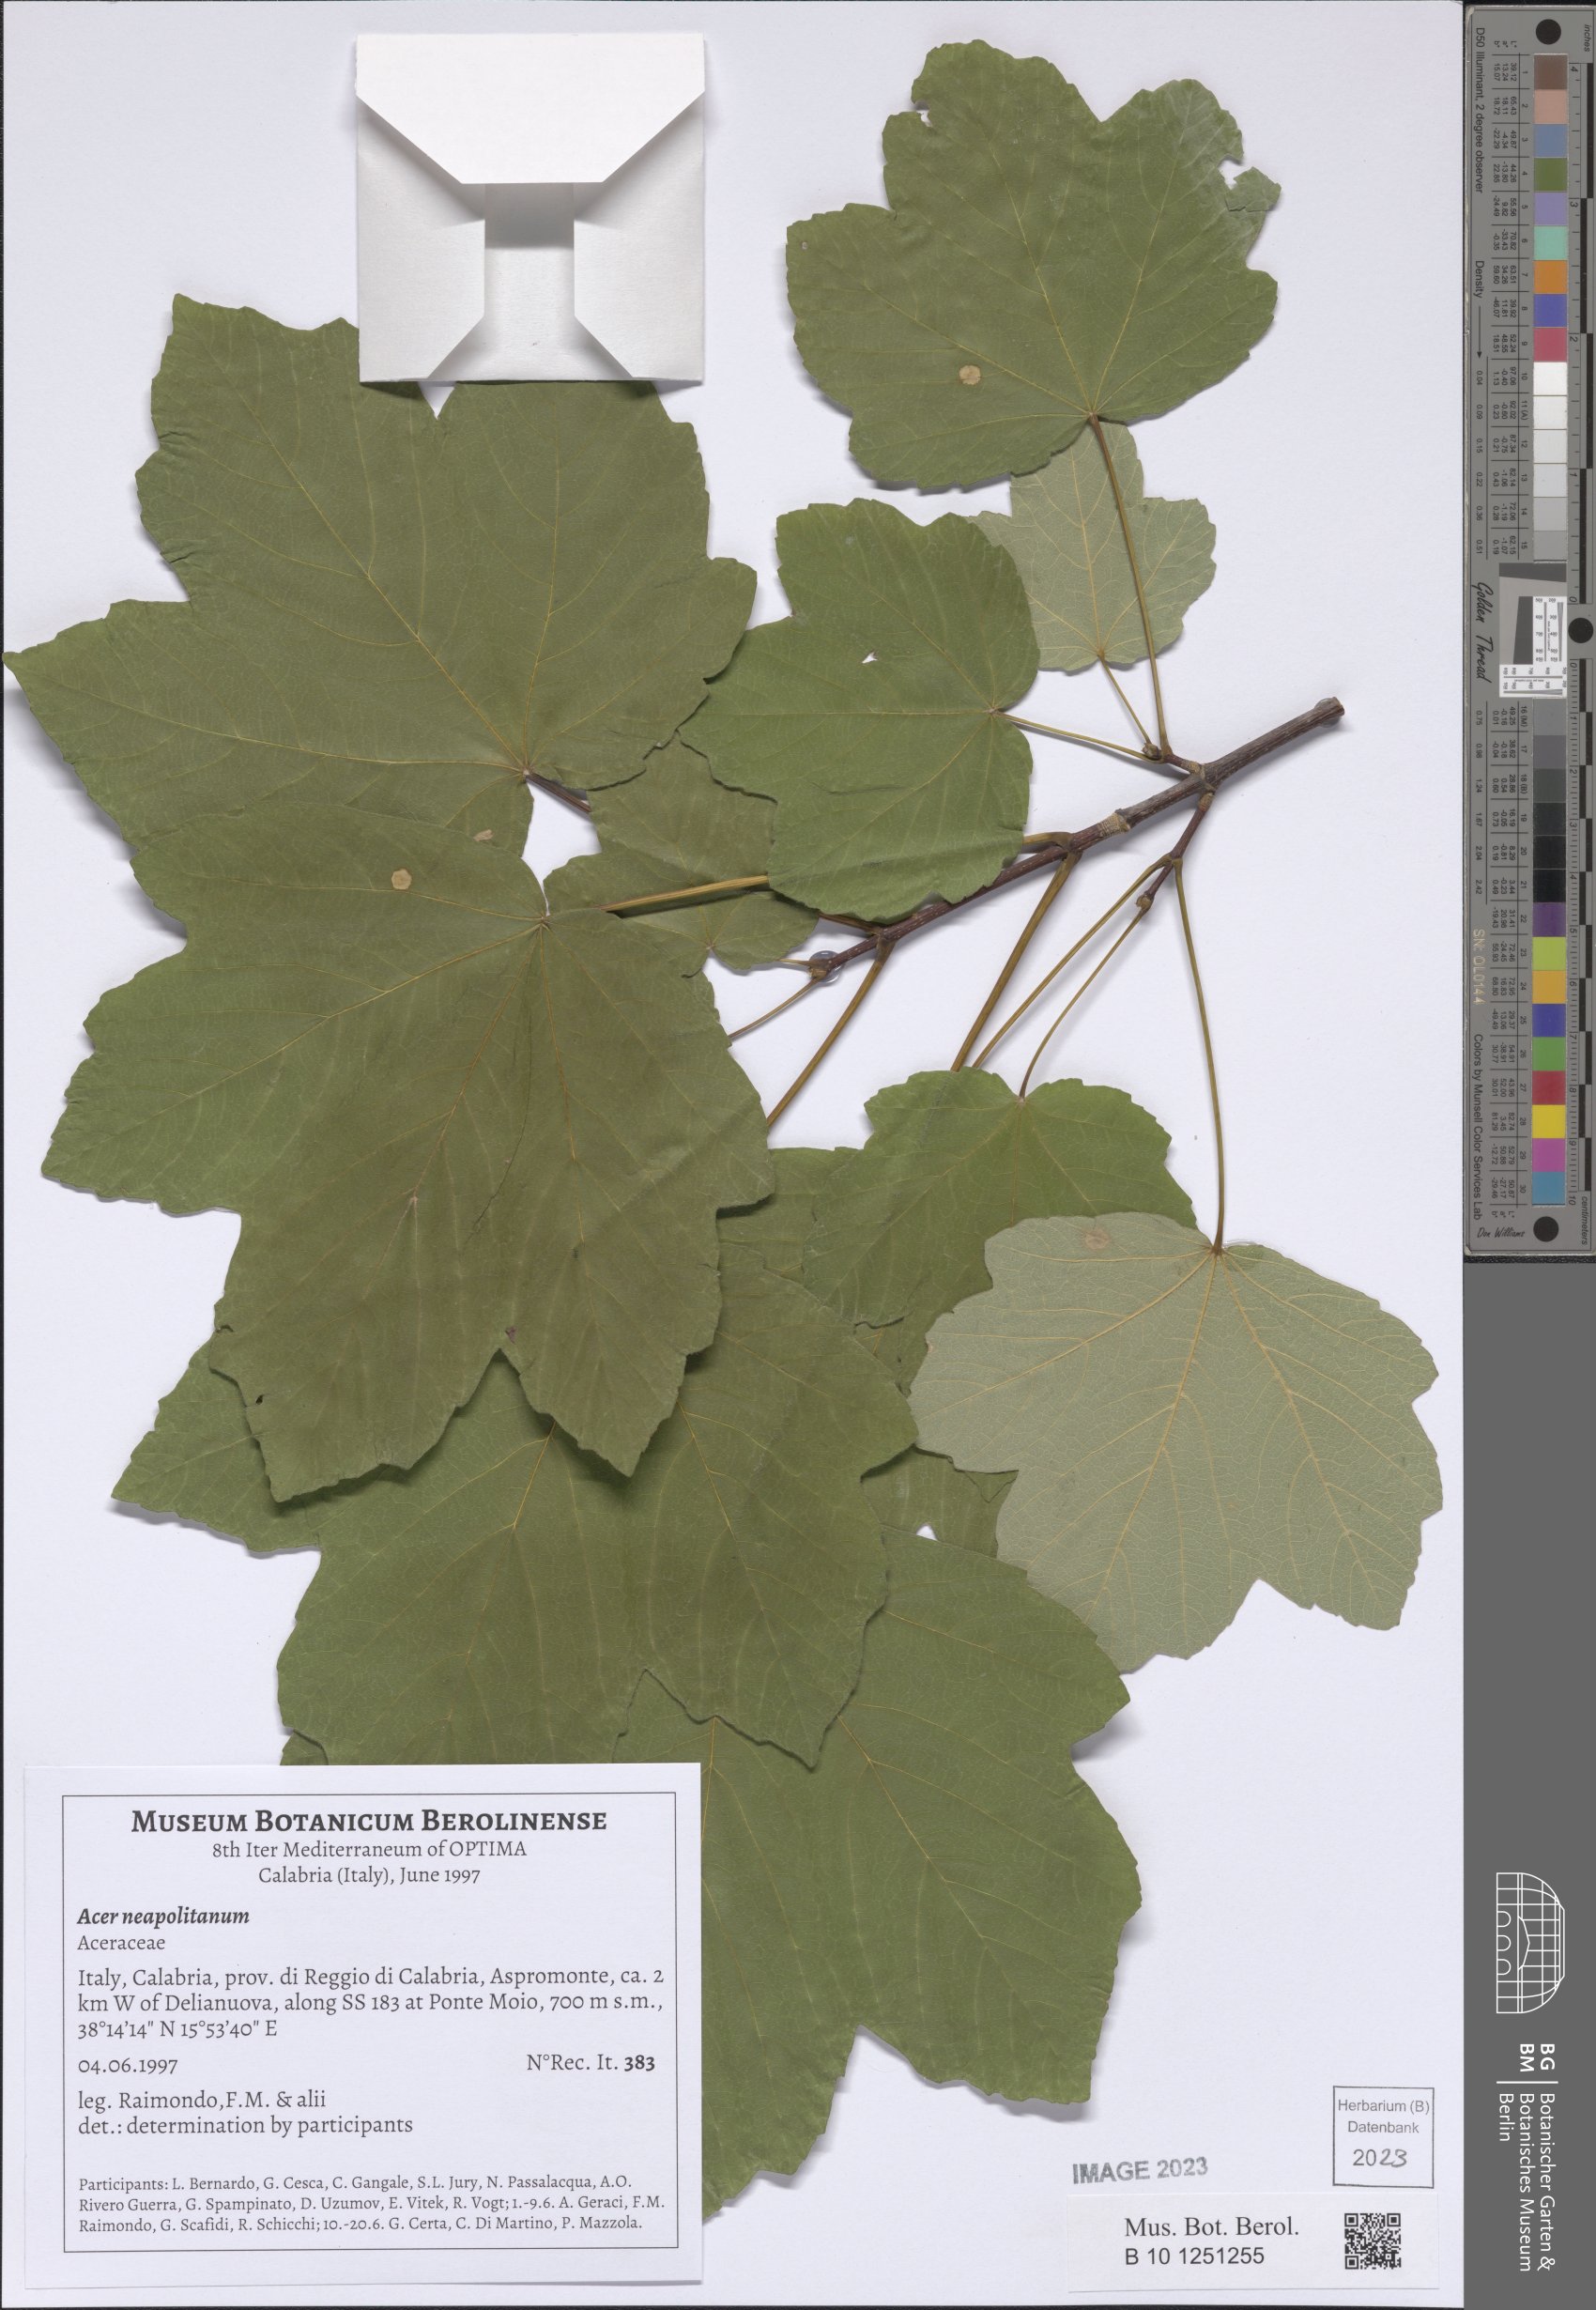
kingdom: Plantae
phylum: Tracheophyta
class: Magnoliopsida
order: Sapindales
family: Sapindaceae
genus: Acer
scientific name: Acer obtusatum
